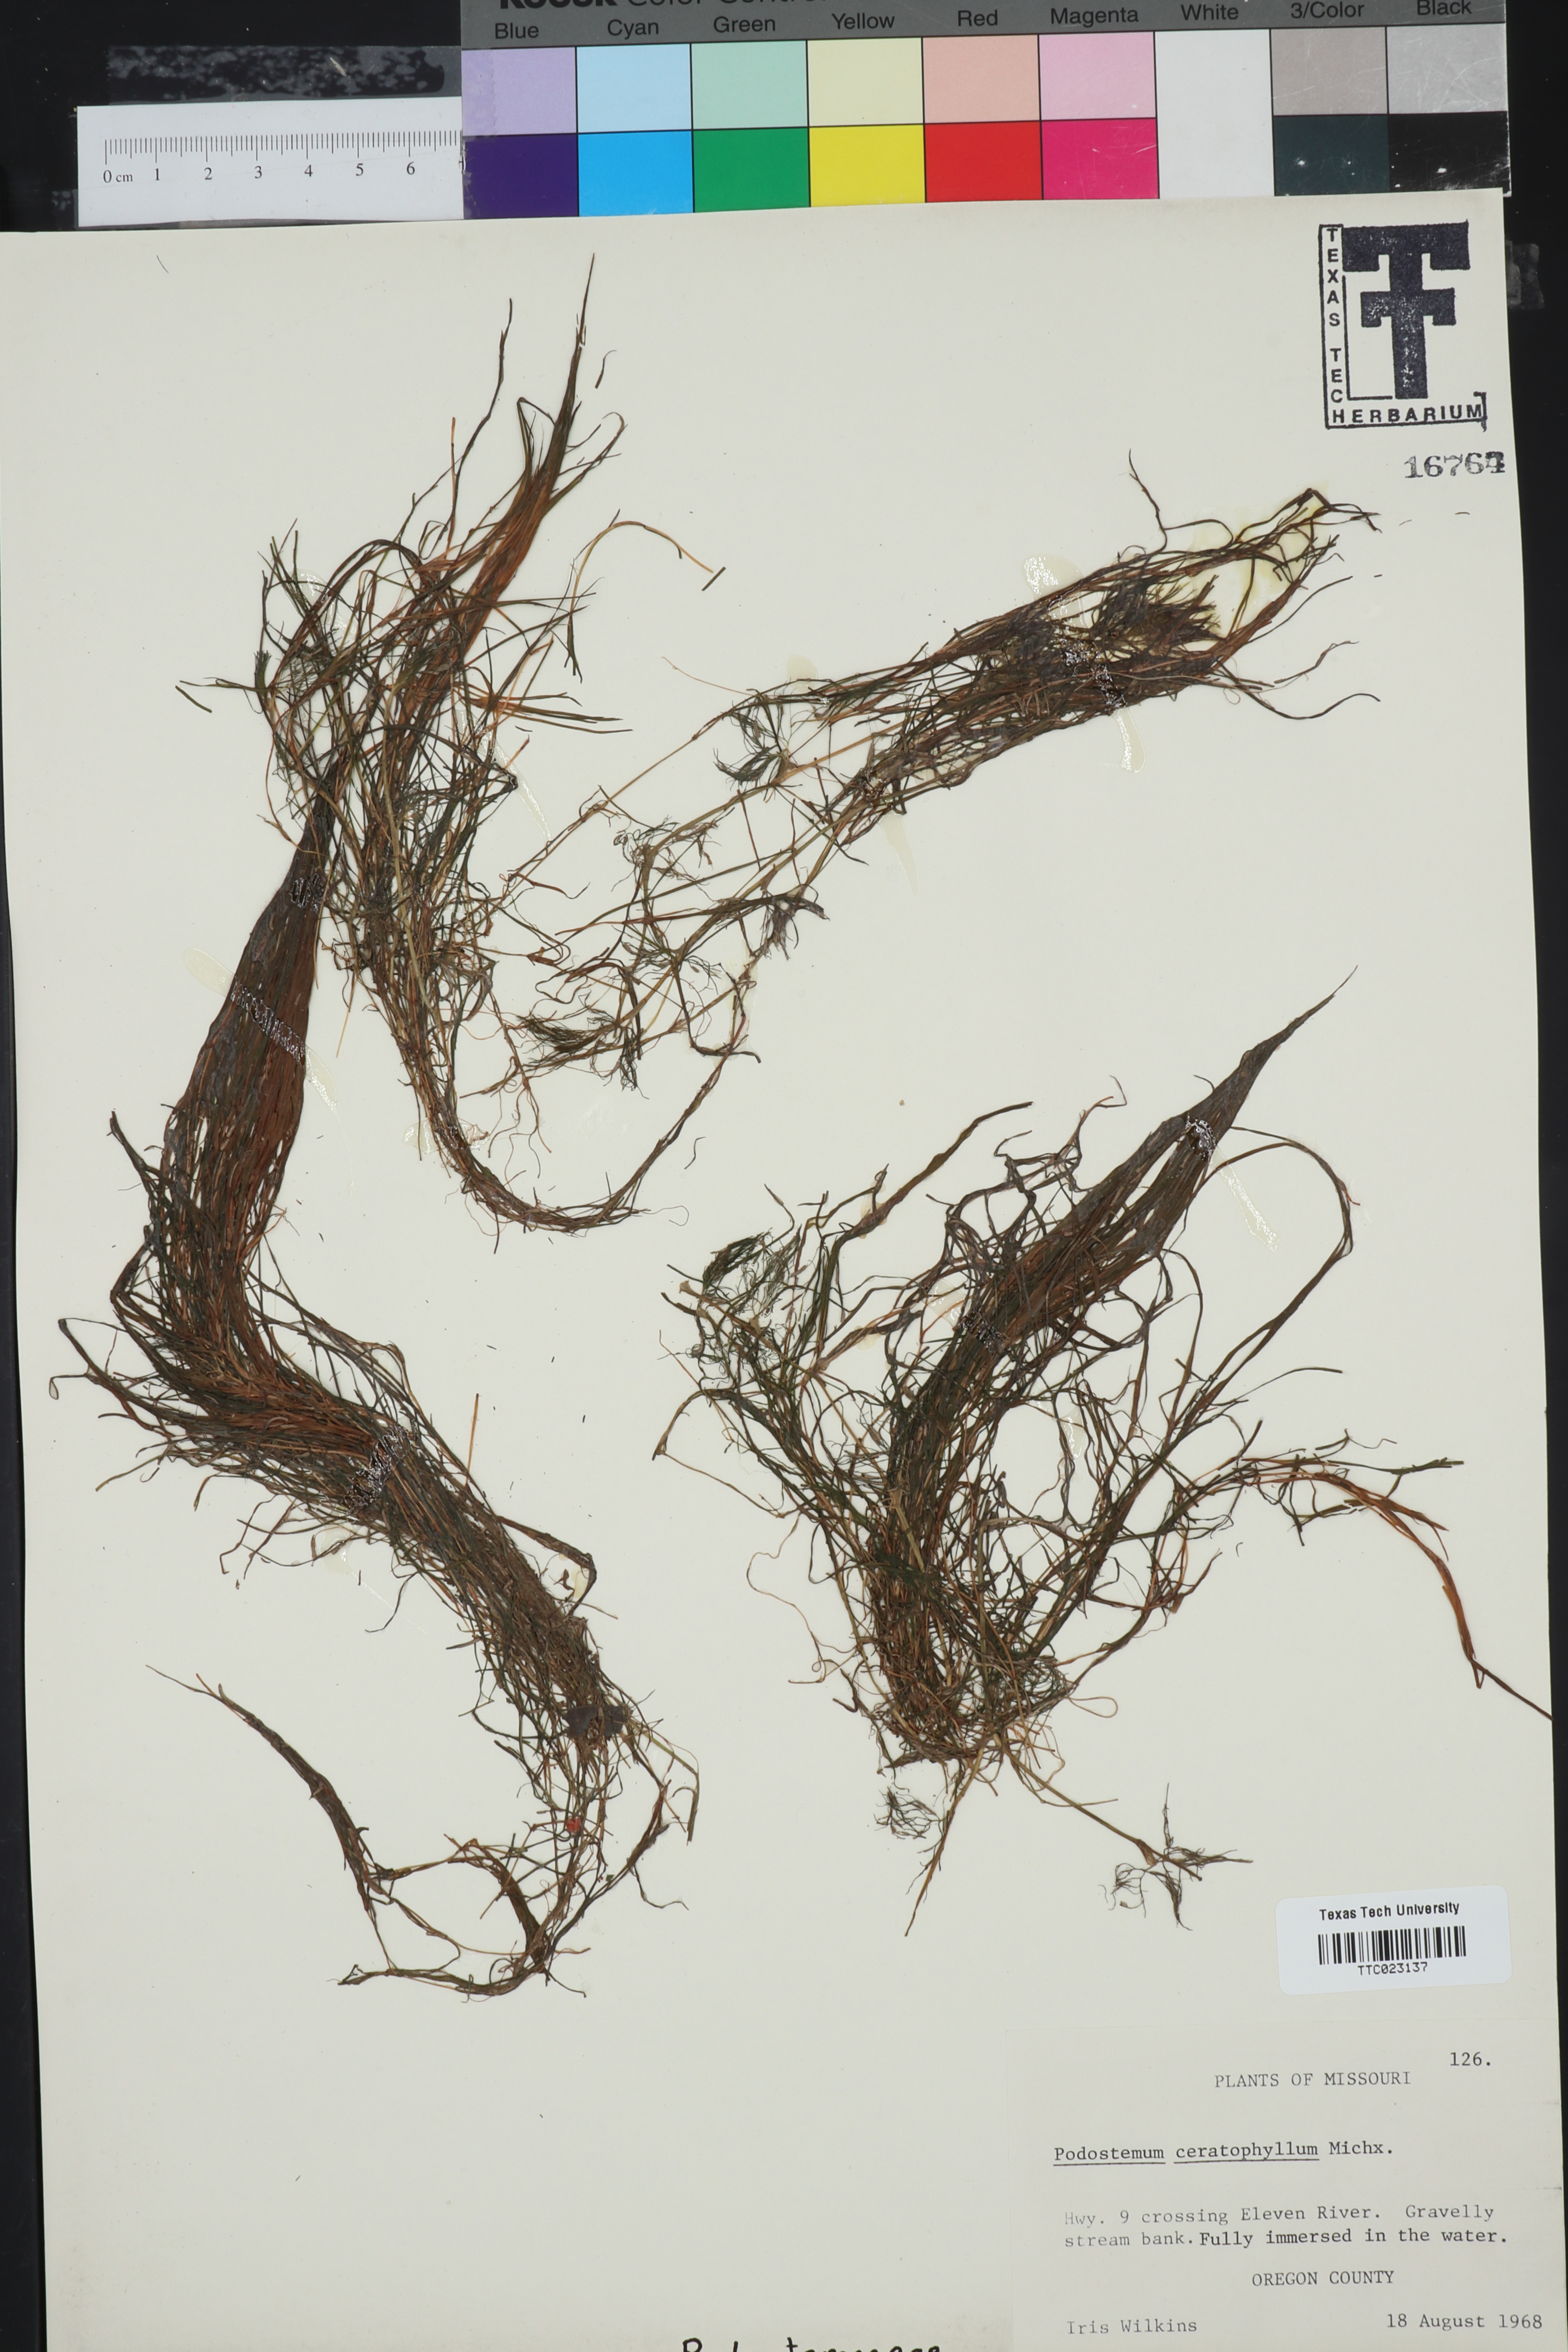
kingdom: Plantae
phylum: Tracheophyta
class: Magnoliopsida
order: Malpighiales
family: Podostemaceae
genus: Podostemum
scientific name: Podostemum ceratophyllum
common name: Horn-leaved riverweed
